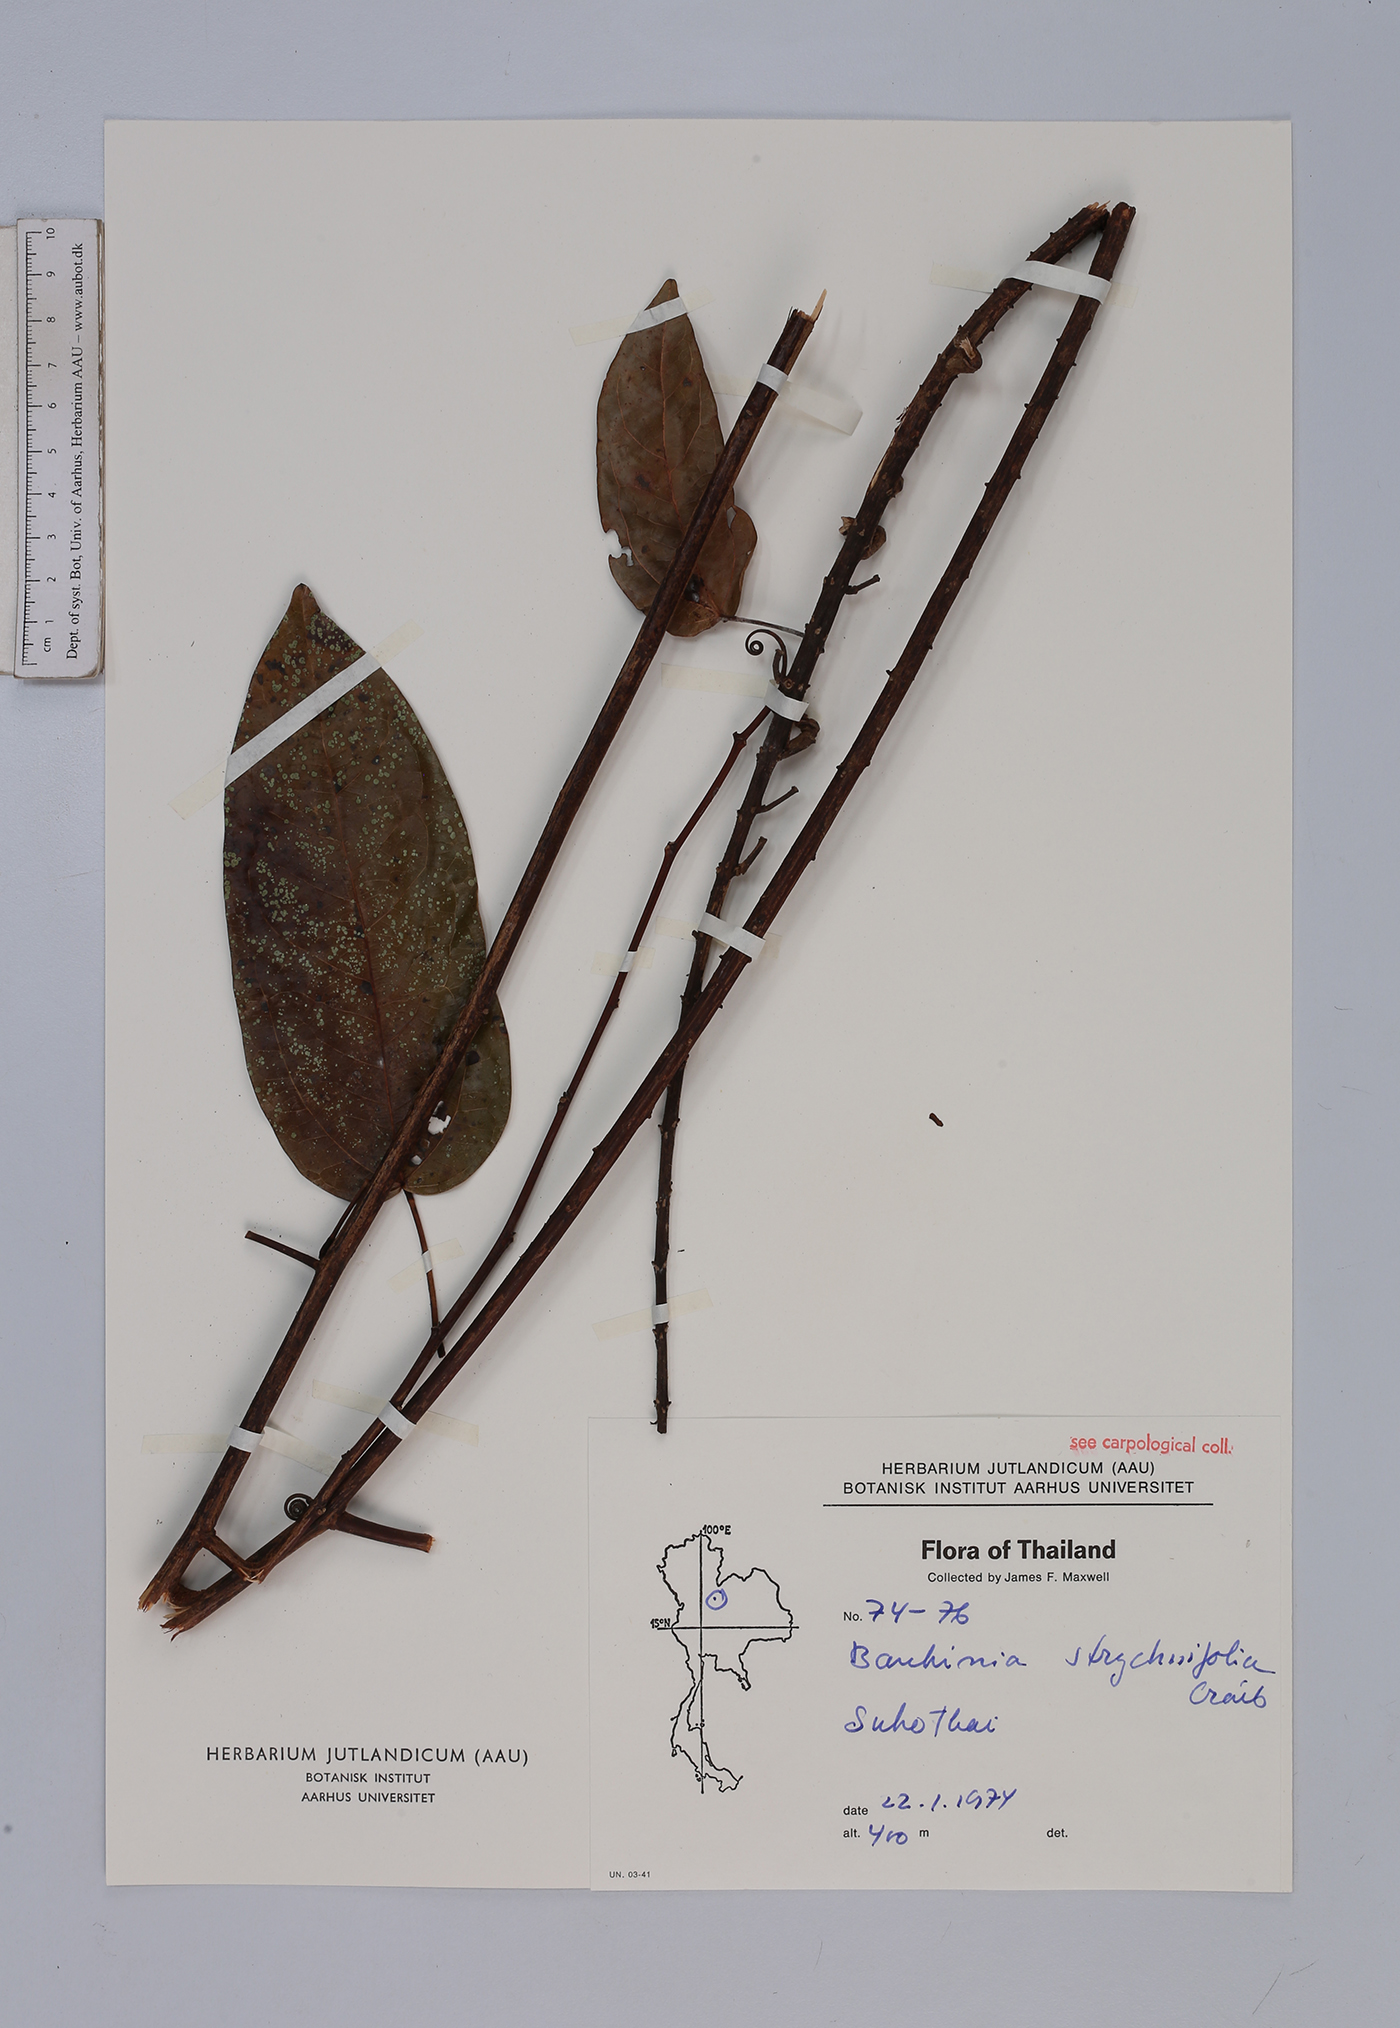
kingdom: Plantae
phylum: Tracheophyta
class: Magnoliopsida
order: Fabales
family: Fabaceae
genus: Lysiphyllum
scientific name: Lysiphyllum strychnifolium
